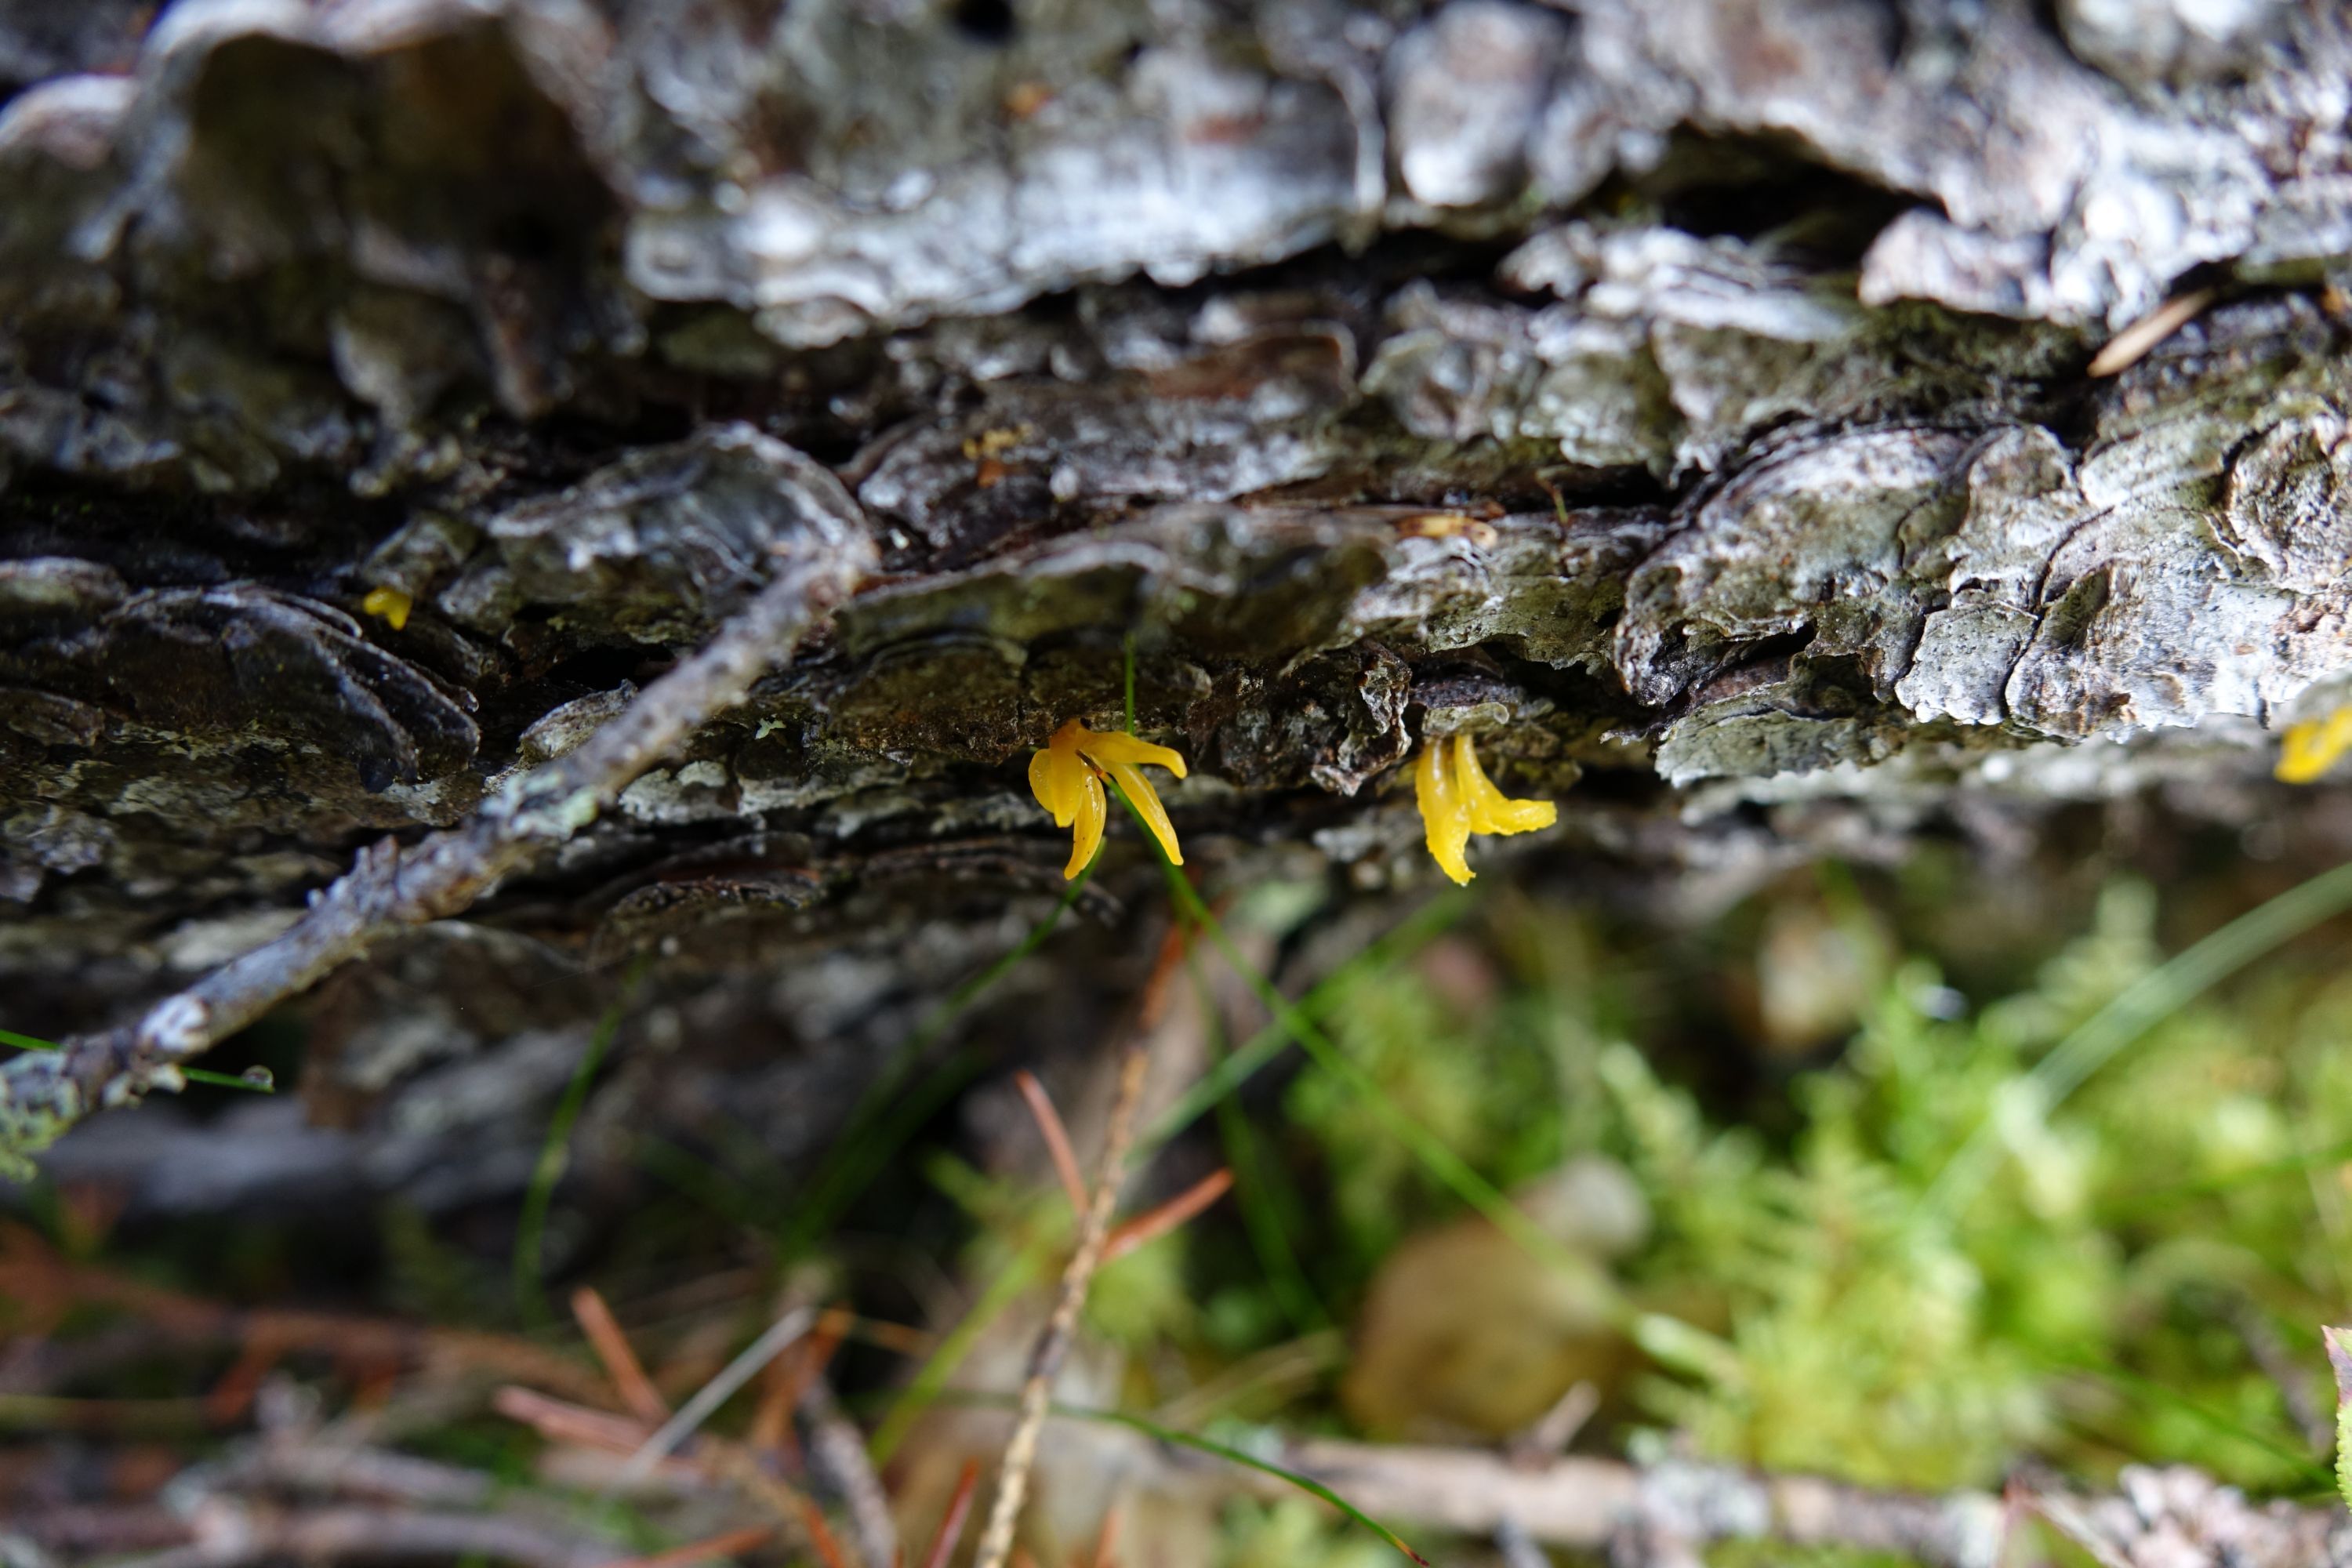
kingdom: Fungi
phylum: Basidiomycota
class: Dacrymycetes
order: Dacrymycetales
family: Dacrymycetaceae
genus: Calocera
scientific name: Calocera furcata
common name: Forked stagshorn
